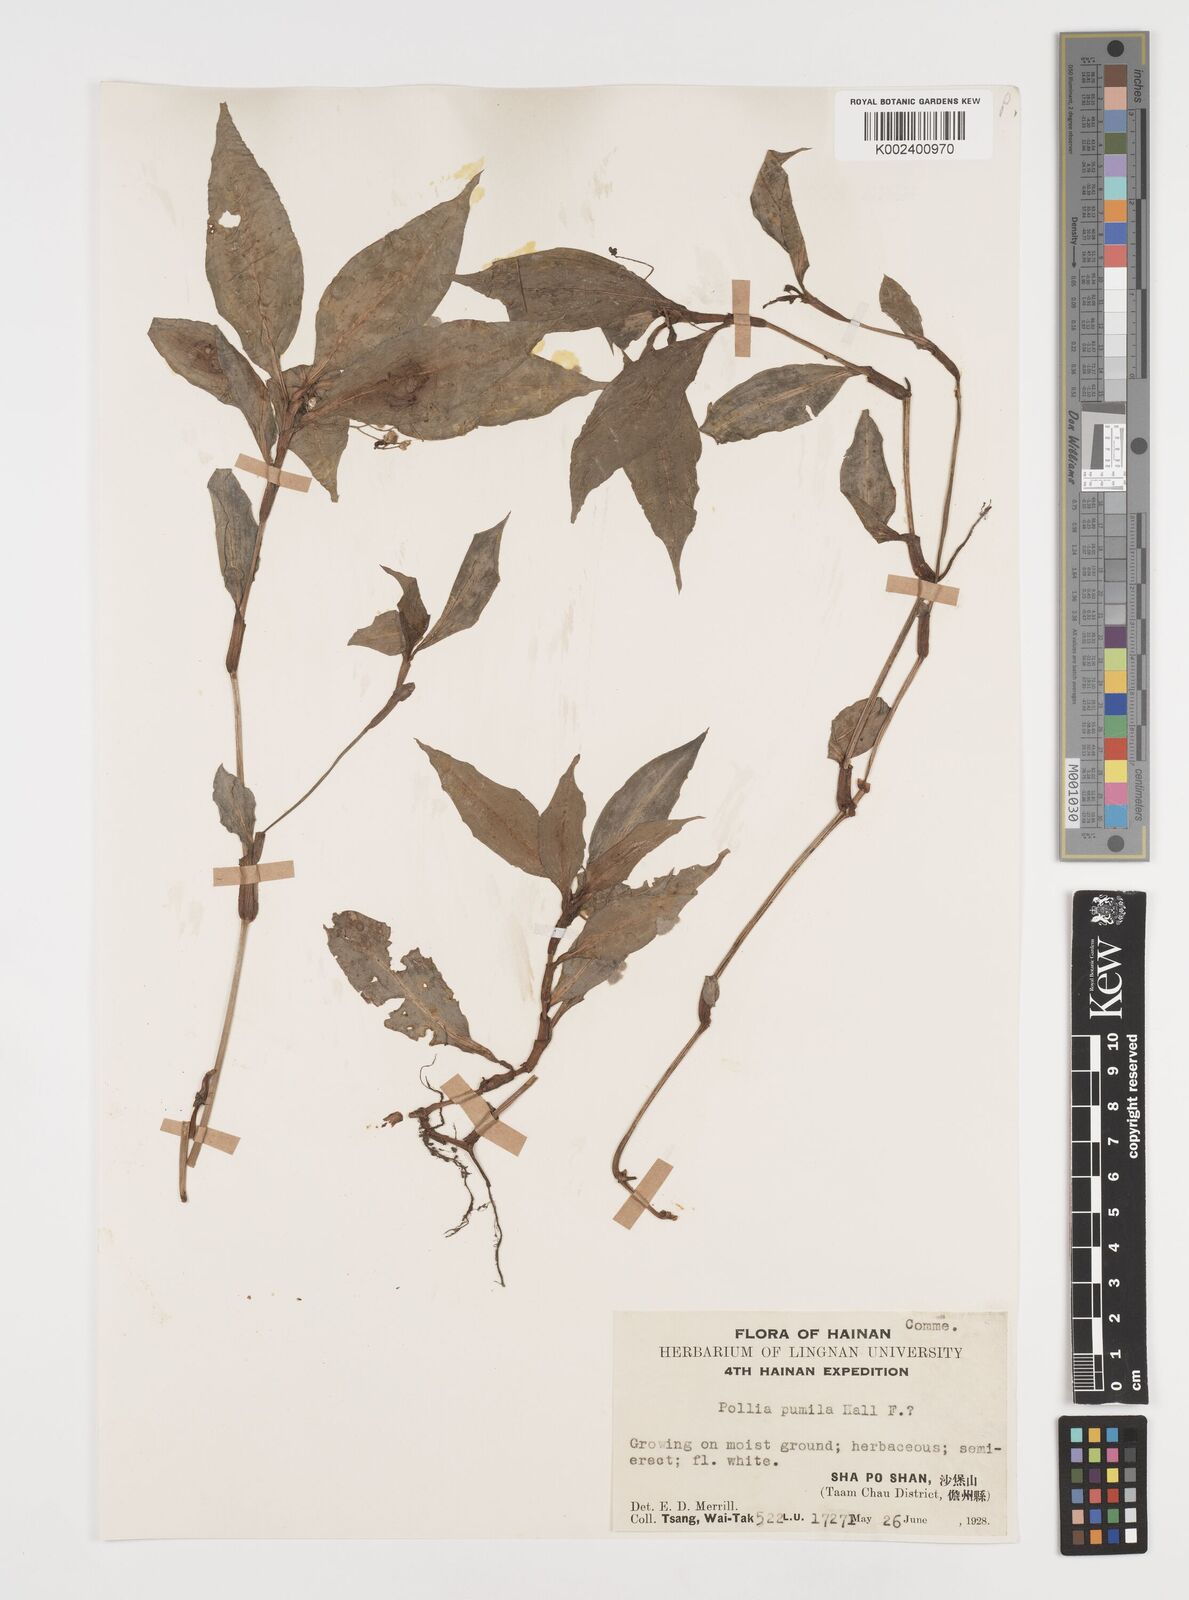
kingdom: Plantae
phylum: Tracheophyta
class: Liliopsida
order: Commelinales
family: Commelinaceae
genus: Tricarpelema
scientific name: Tricarpelema pumilum
